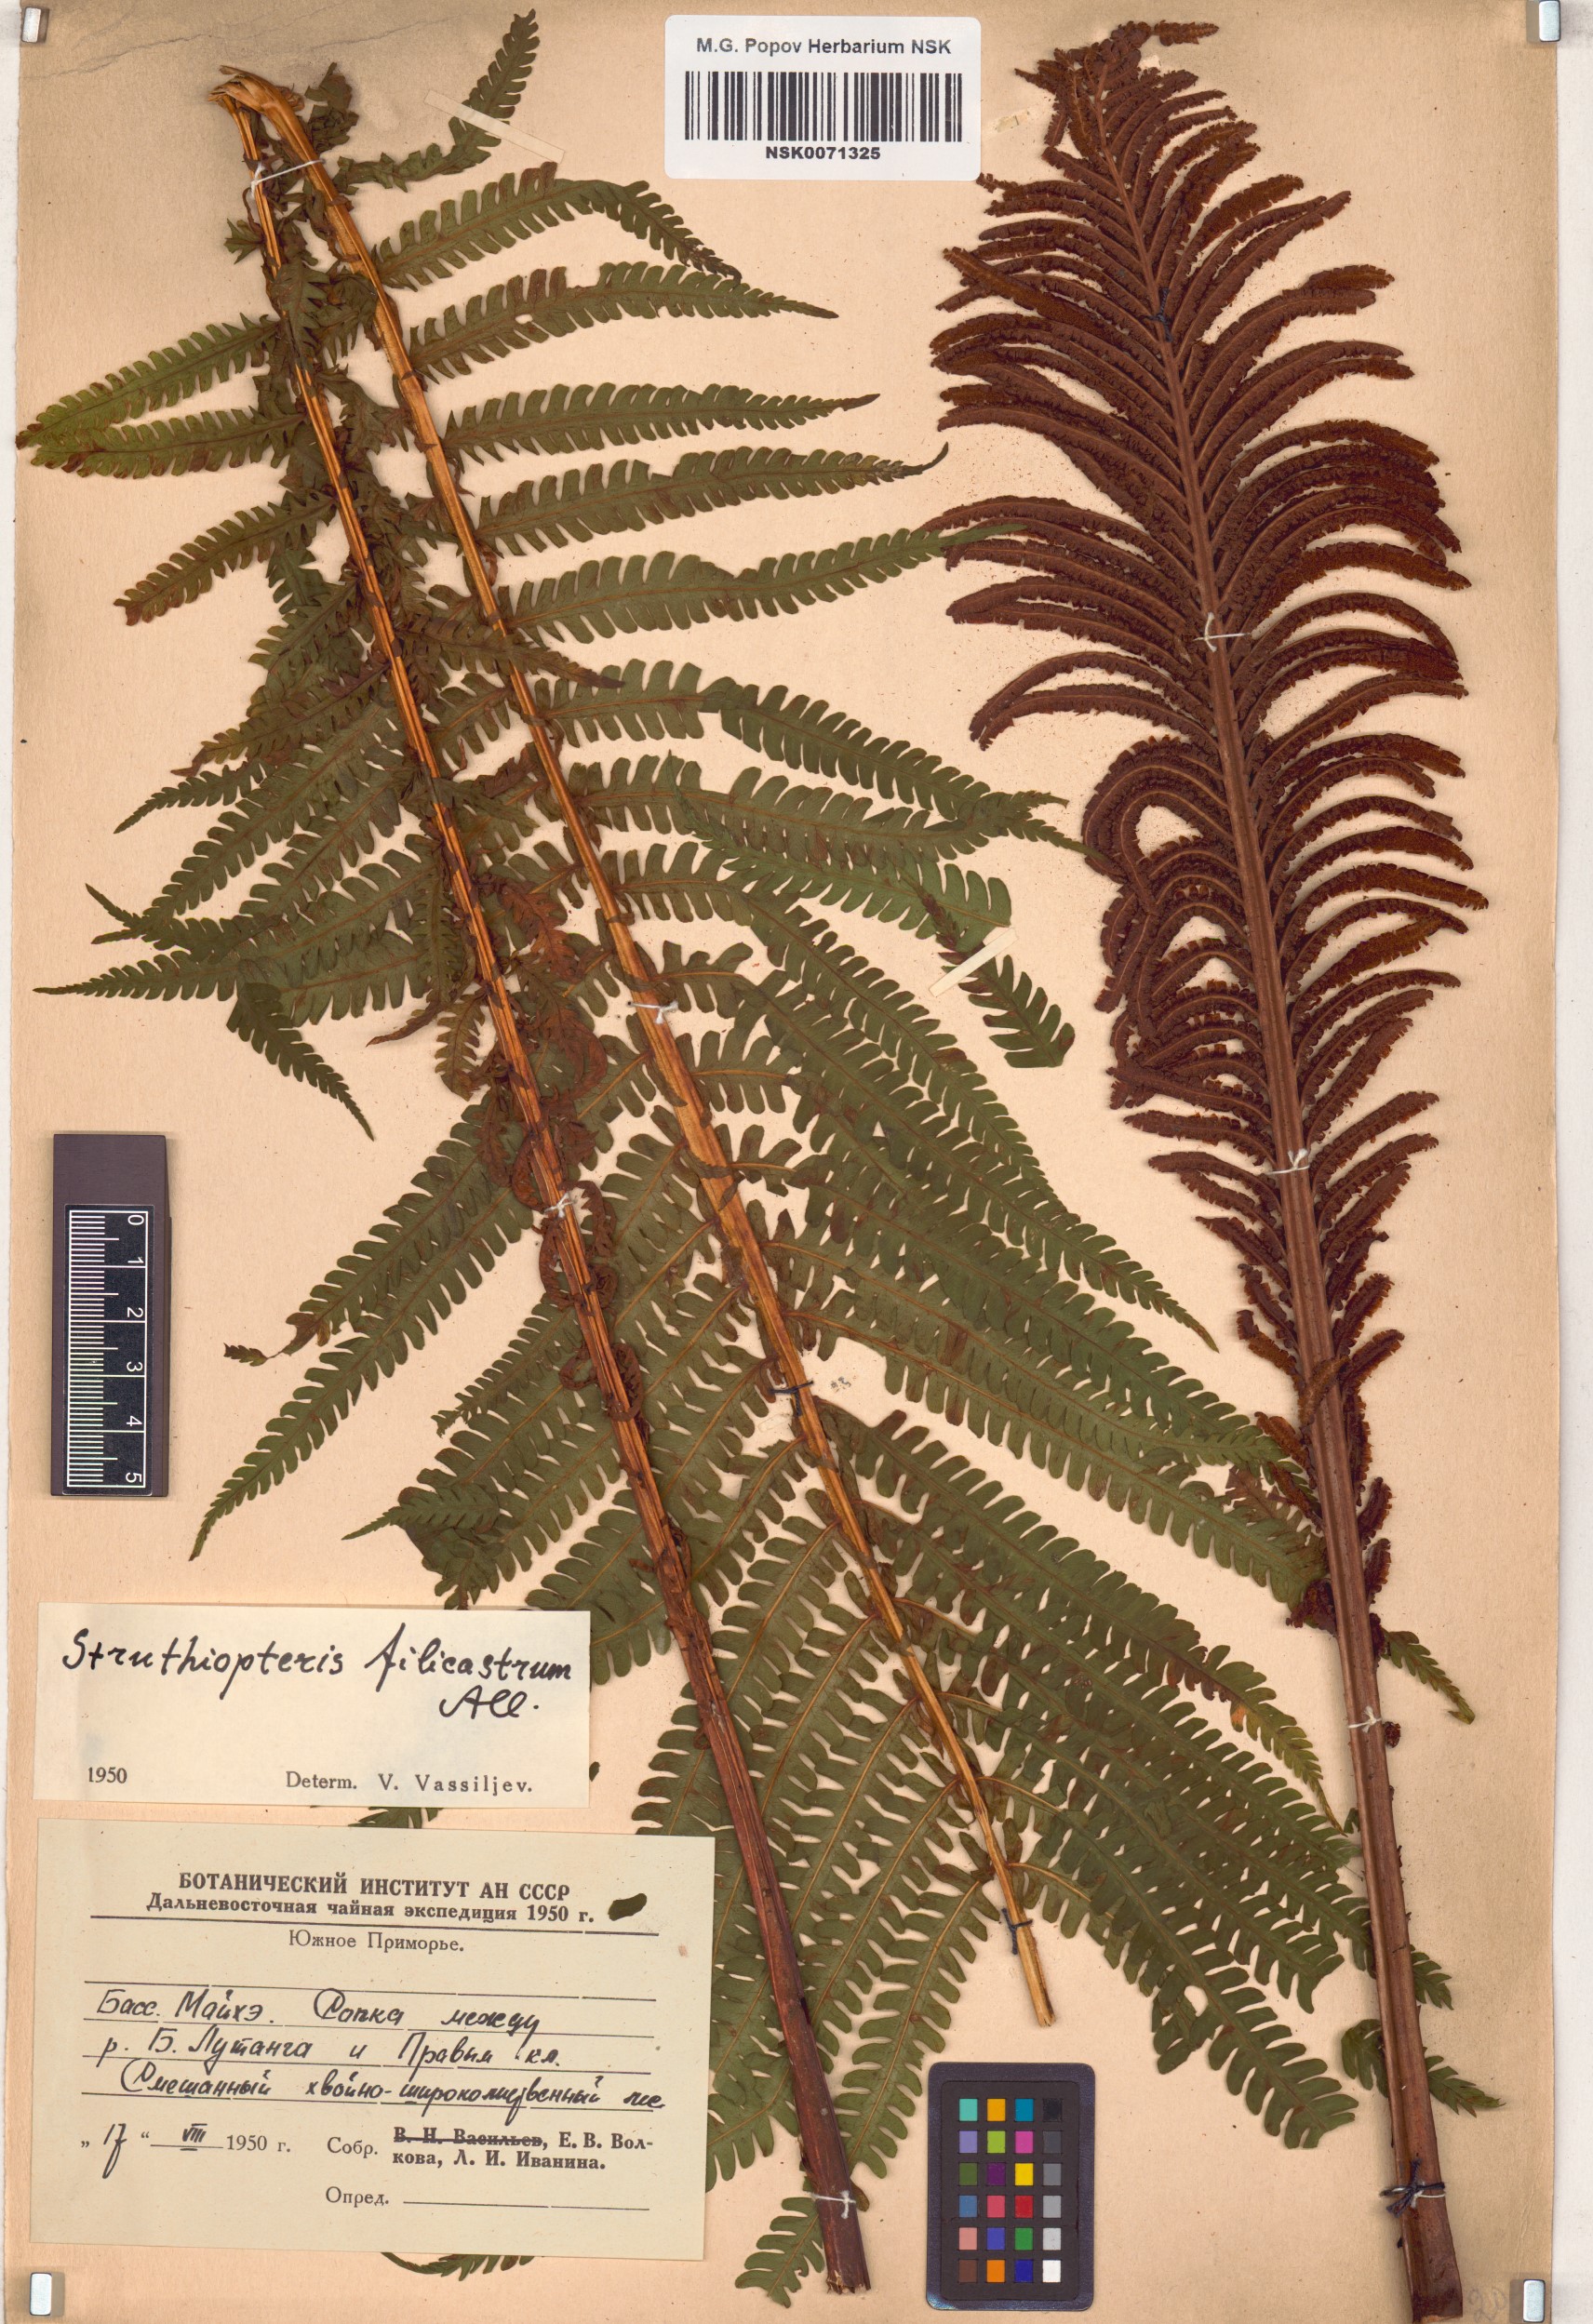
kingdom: Plantae
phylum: Tracheophyta
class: Polypodiopsida
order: Polypodiales
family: Onocleaceae
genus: Matteuccia
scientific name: Matteuccia struthiopteris
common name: Ostrich fern
